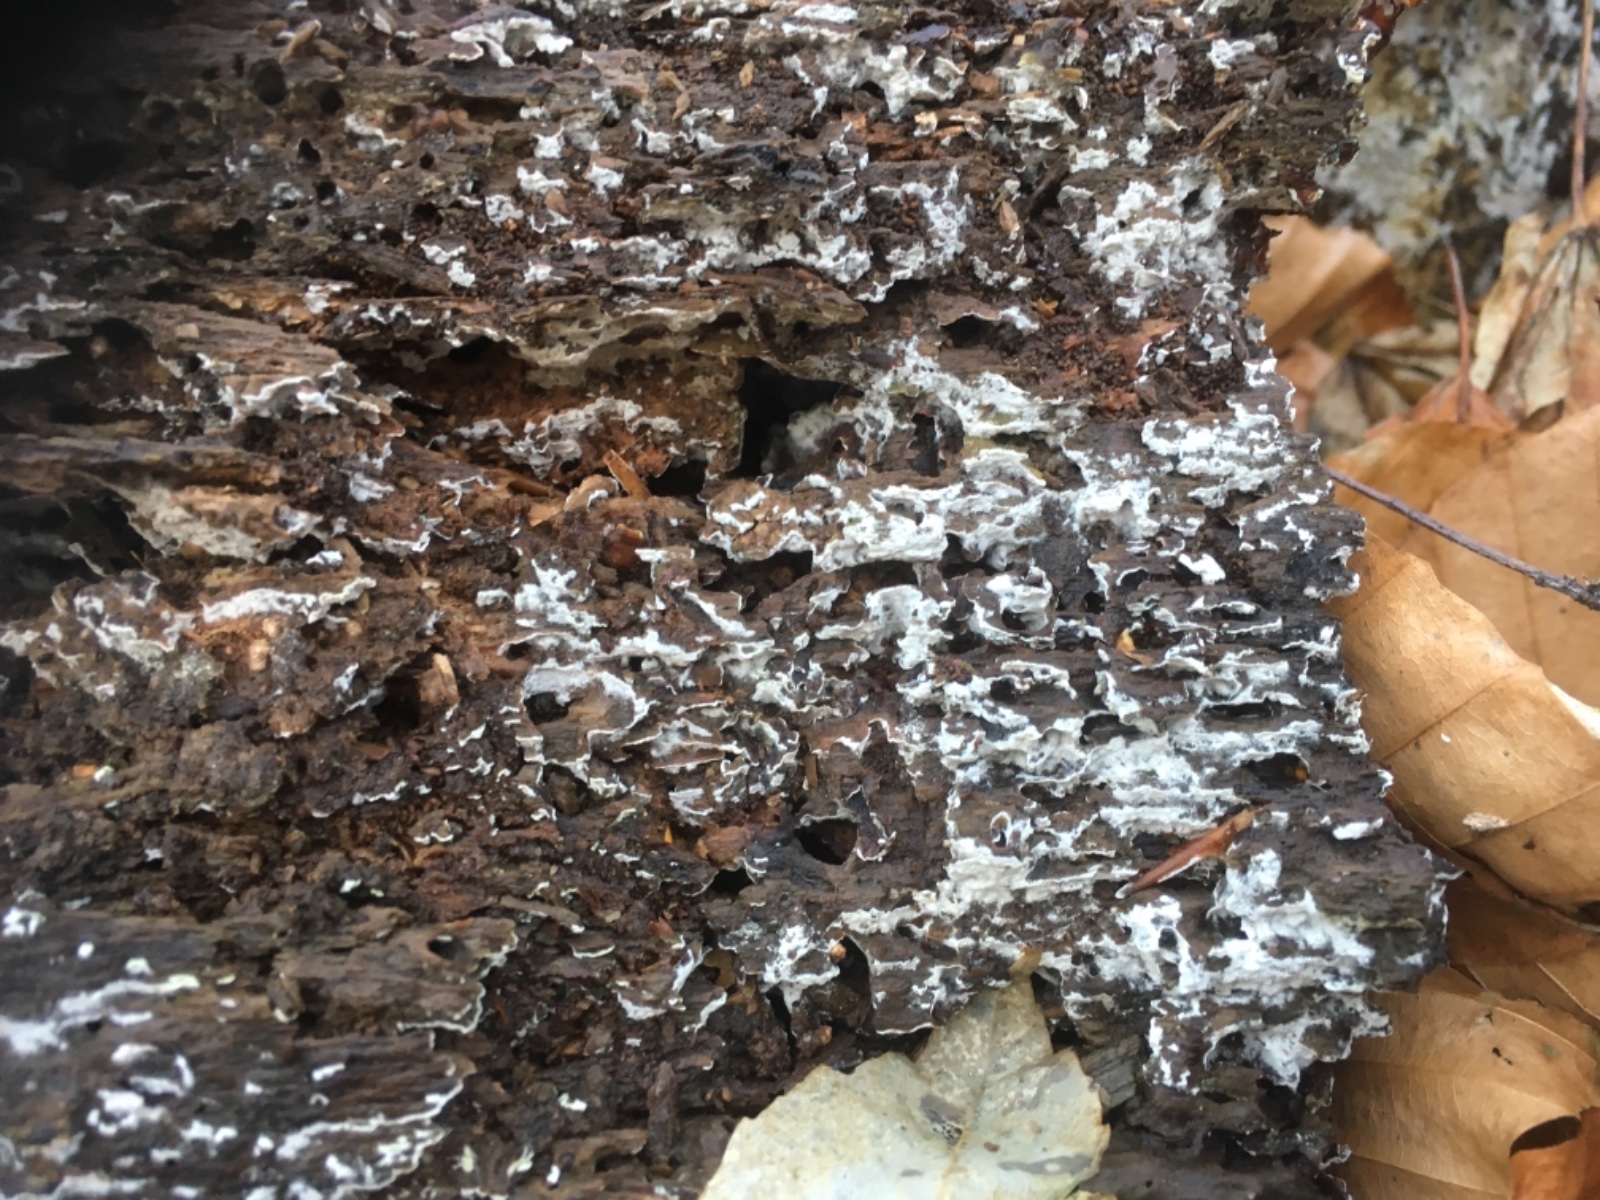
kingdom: Fungi
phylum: Basidiomycota
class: Agaricomycetes
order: Corticiales
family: Corticiaceae
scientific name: Corticiaceae
